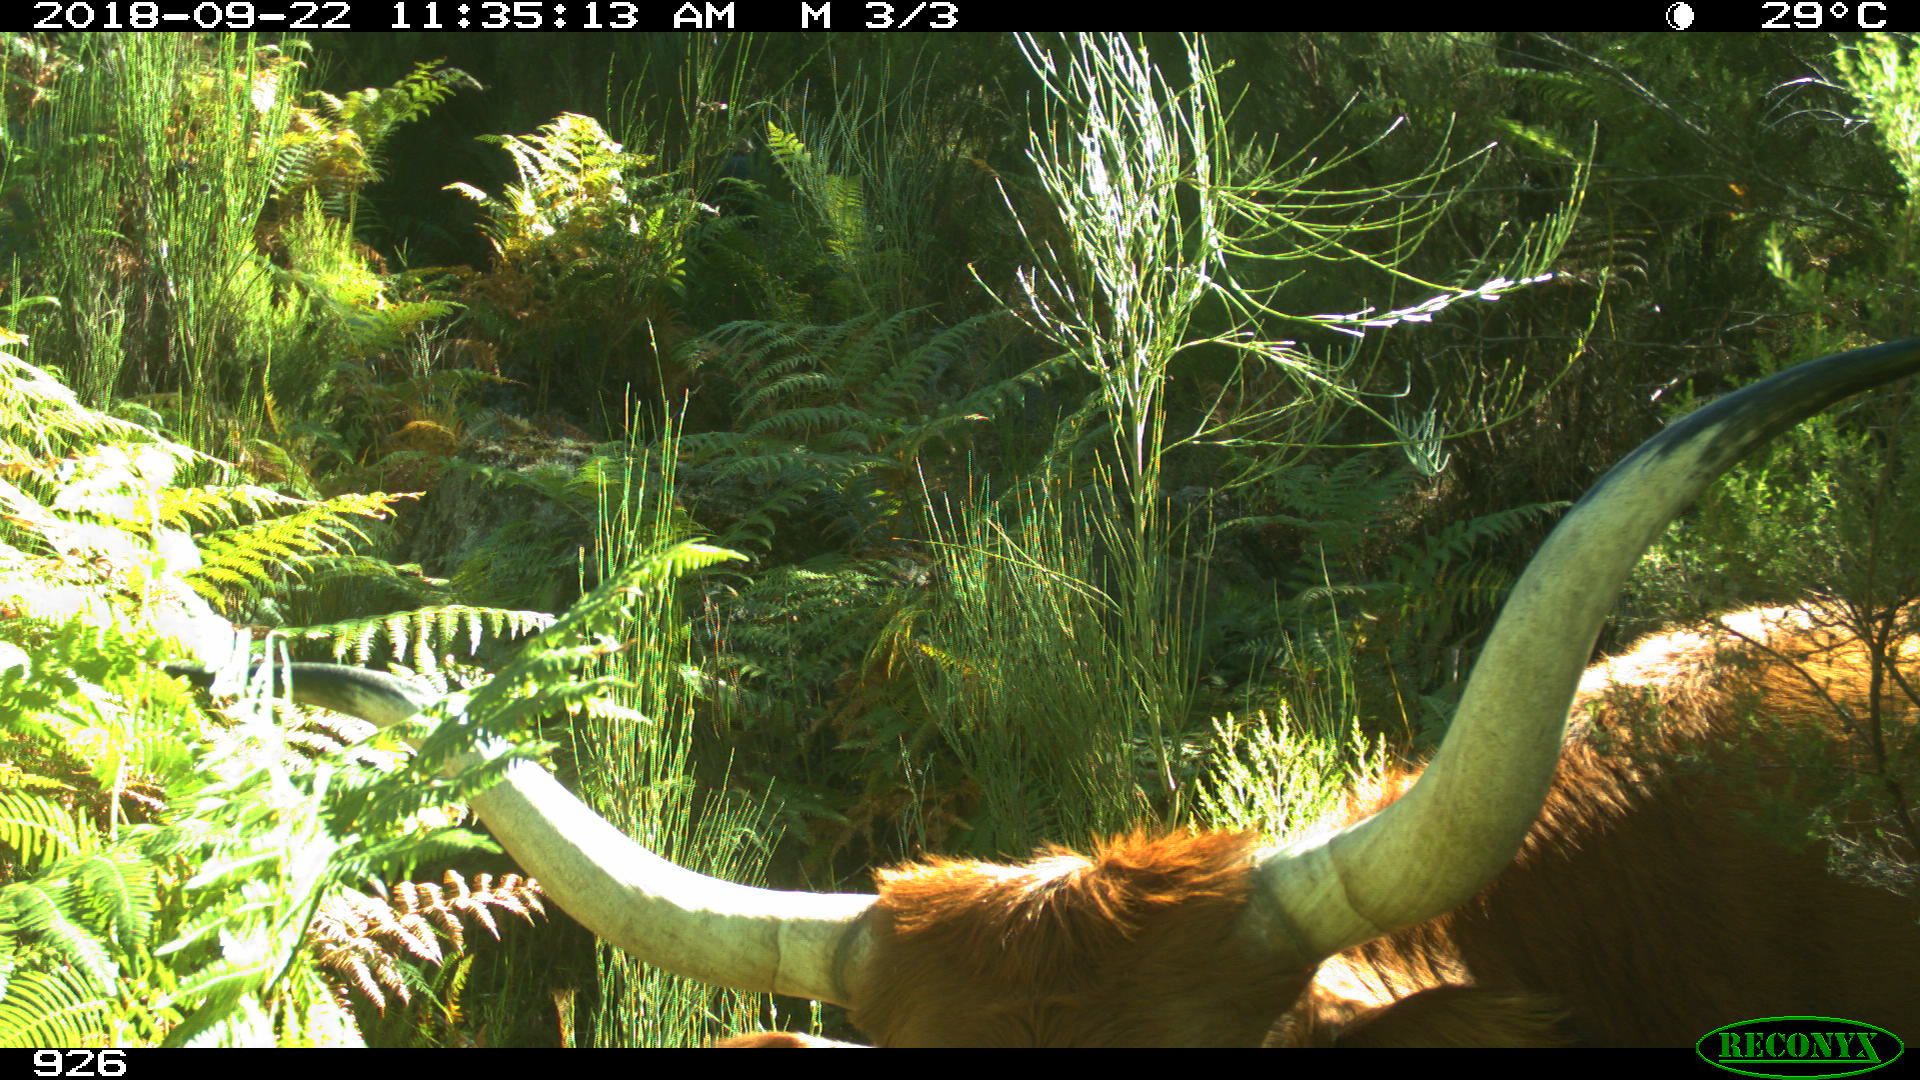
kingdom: Animalia
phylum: Chordata
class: Mammalia
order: Artiodactyla
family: Bovidae
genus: Bos
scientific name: Bos taurus
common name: Domesticated cattle
